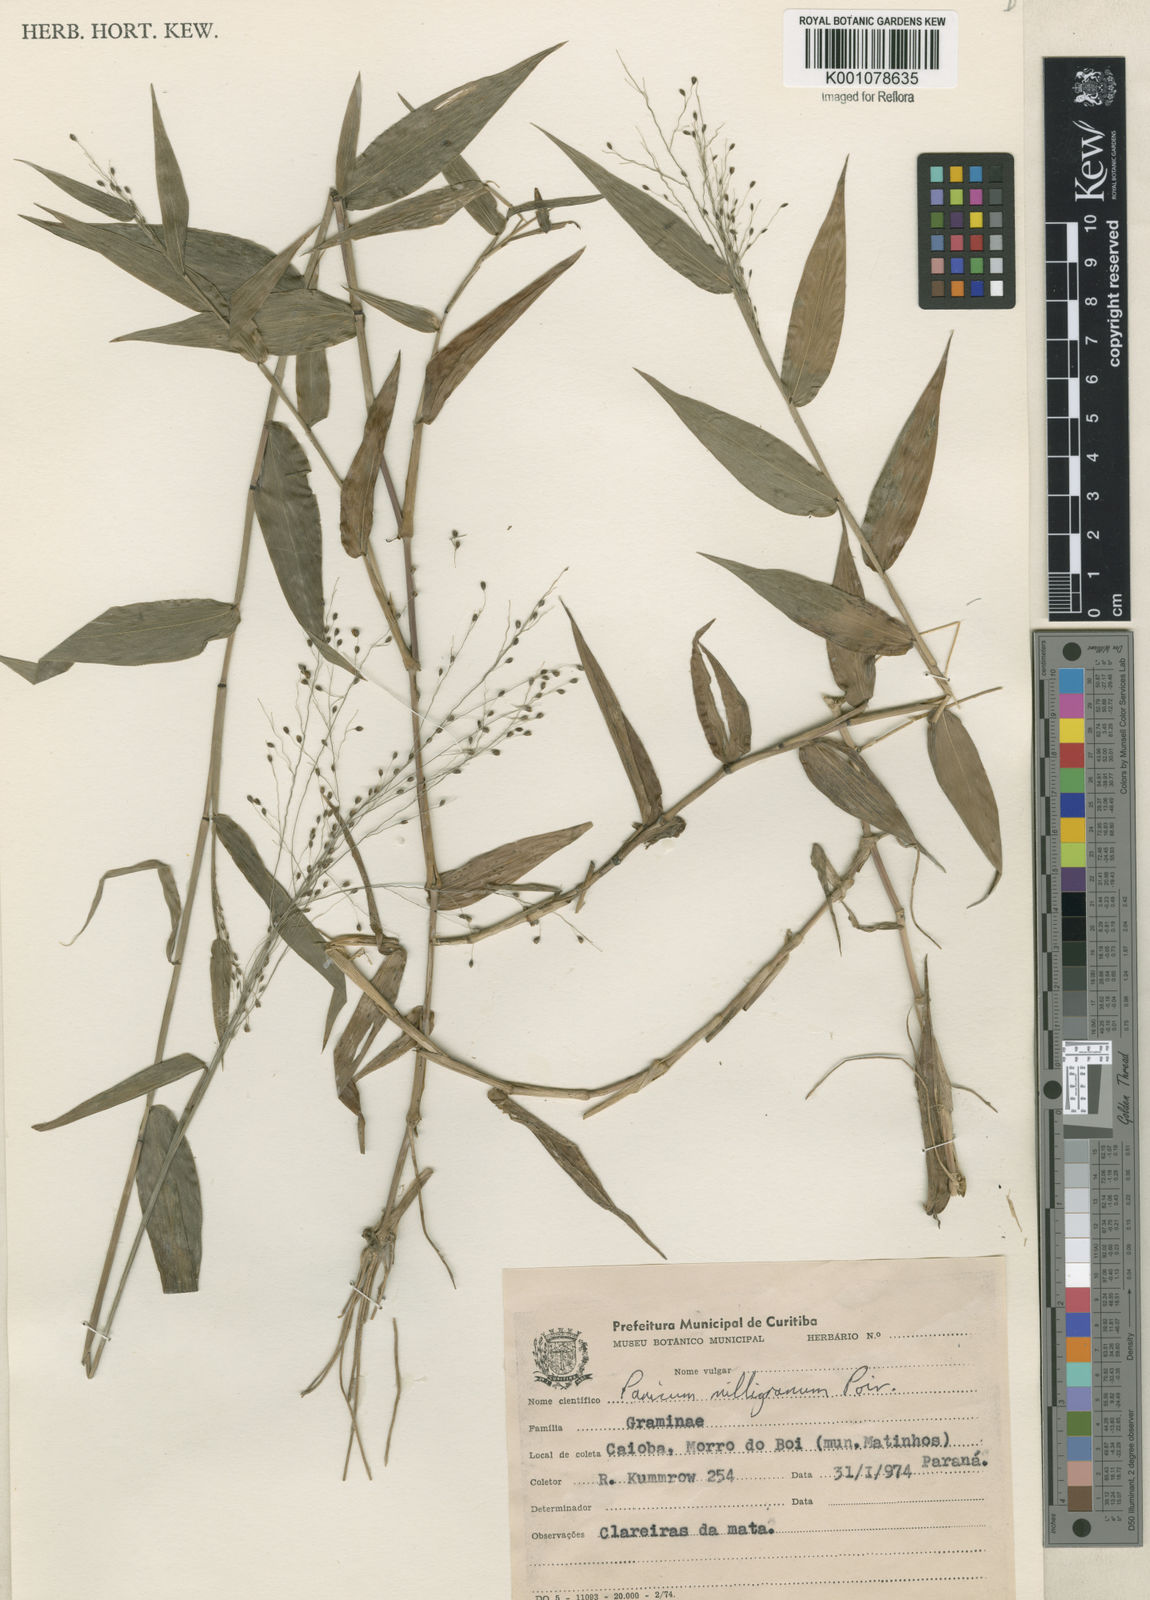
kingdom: Plantae
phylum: Tracheophyta
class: Liliopsida
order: Poales
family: Poaceae
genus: Panicum
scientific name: Panicum millegrana
